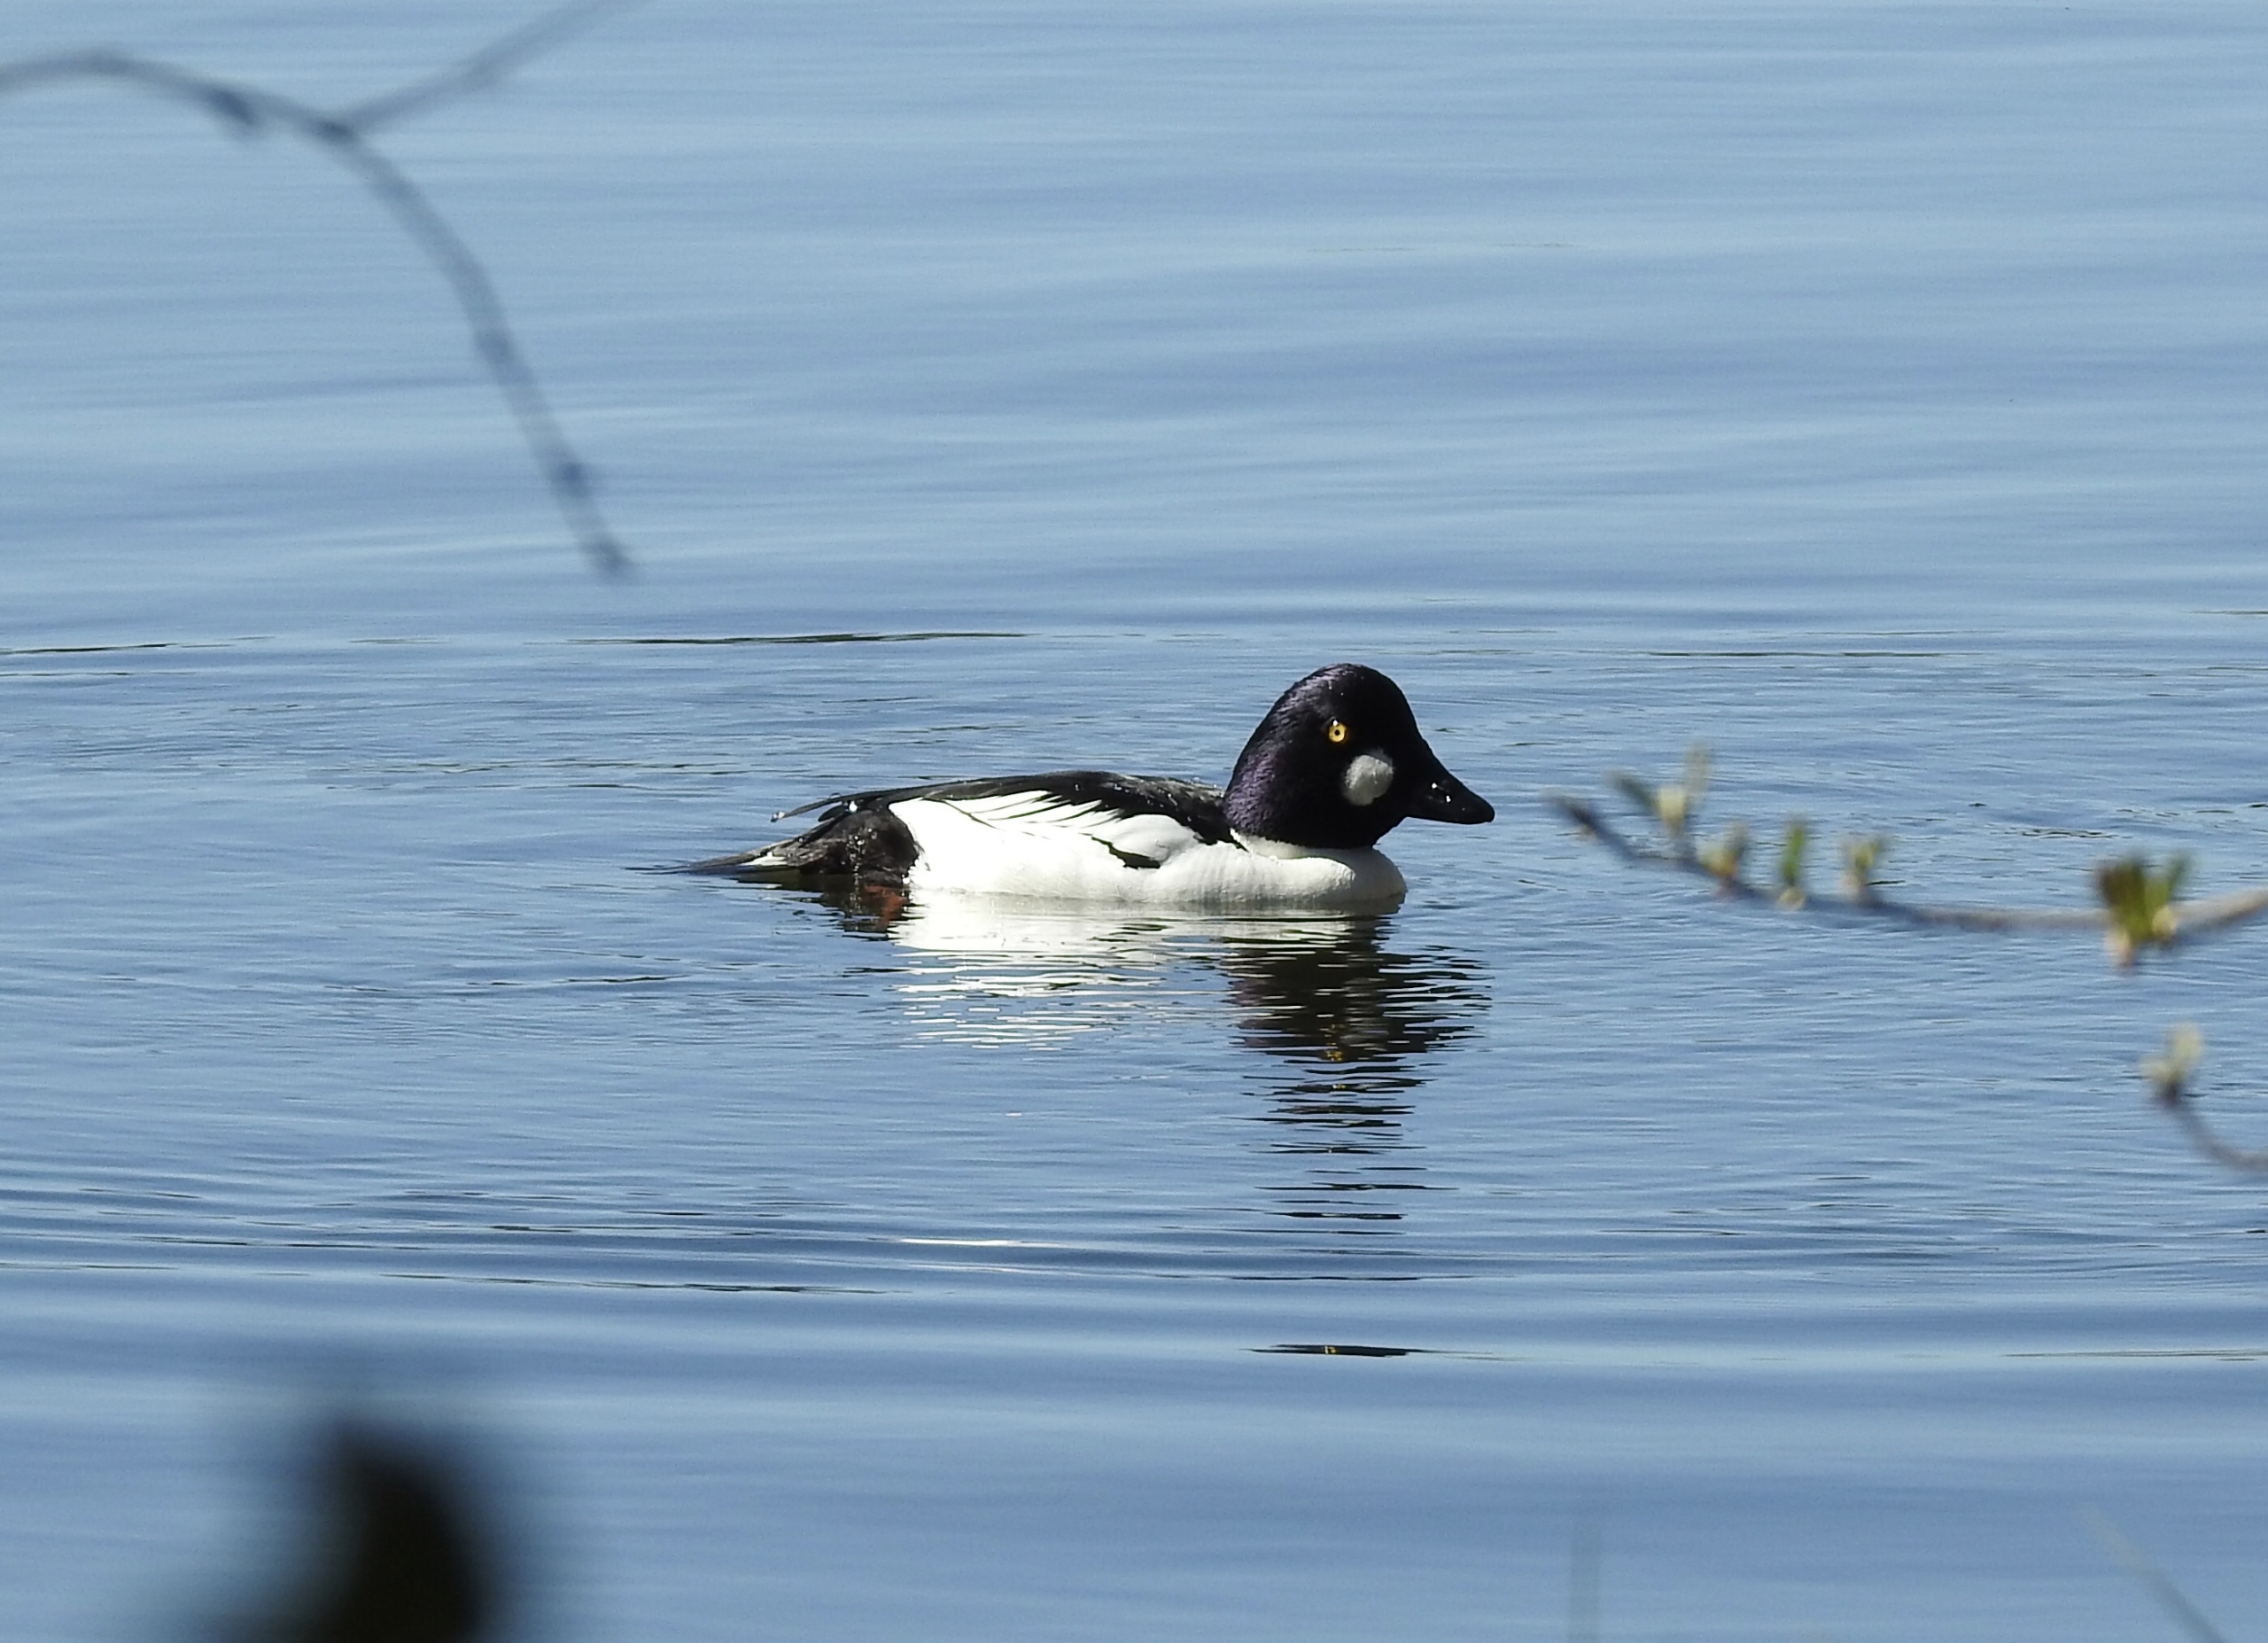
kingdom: Animalia
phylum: Chordata
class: Aves
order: Anseriformes
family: Anatidae
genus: Bucephala
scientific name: Bucephala clangula
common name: Hvinand
